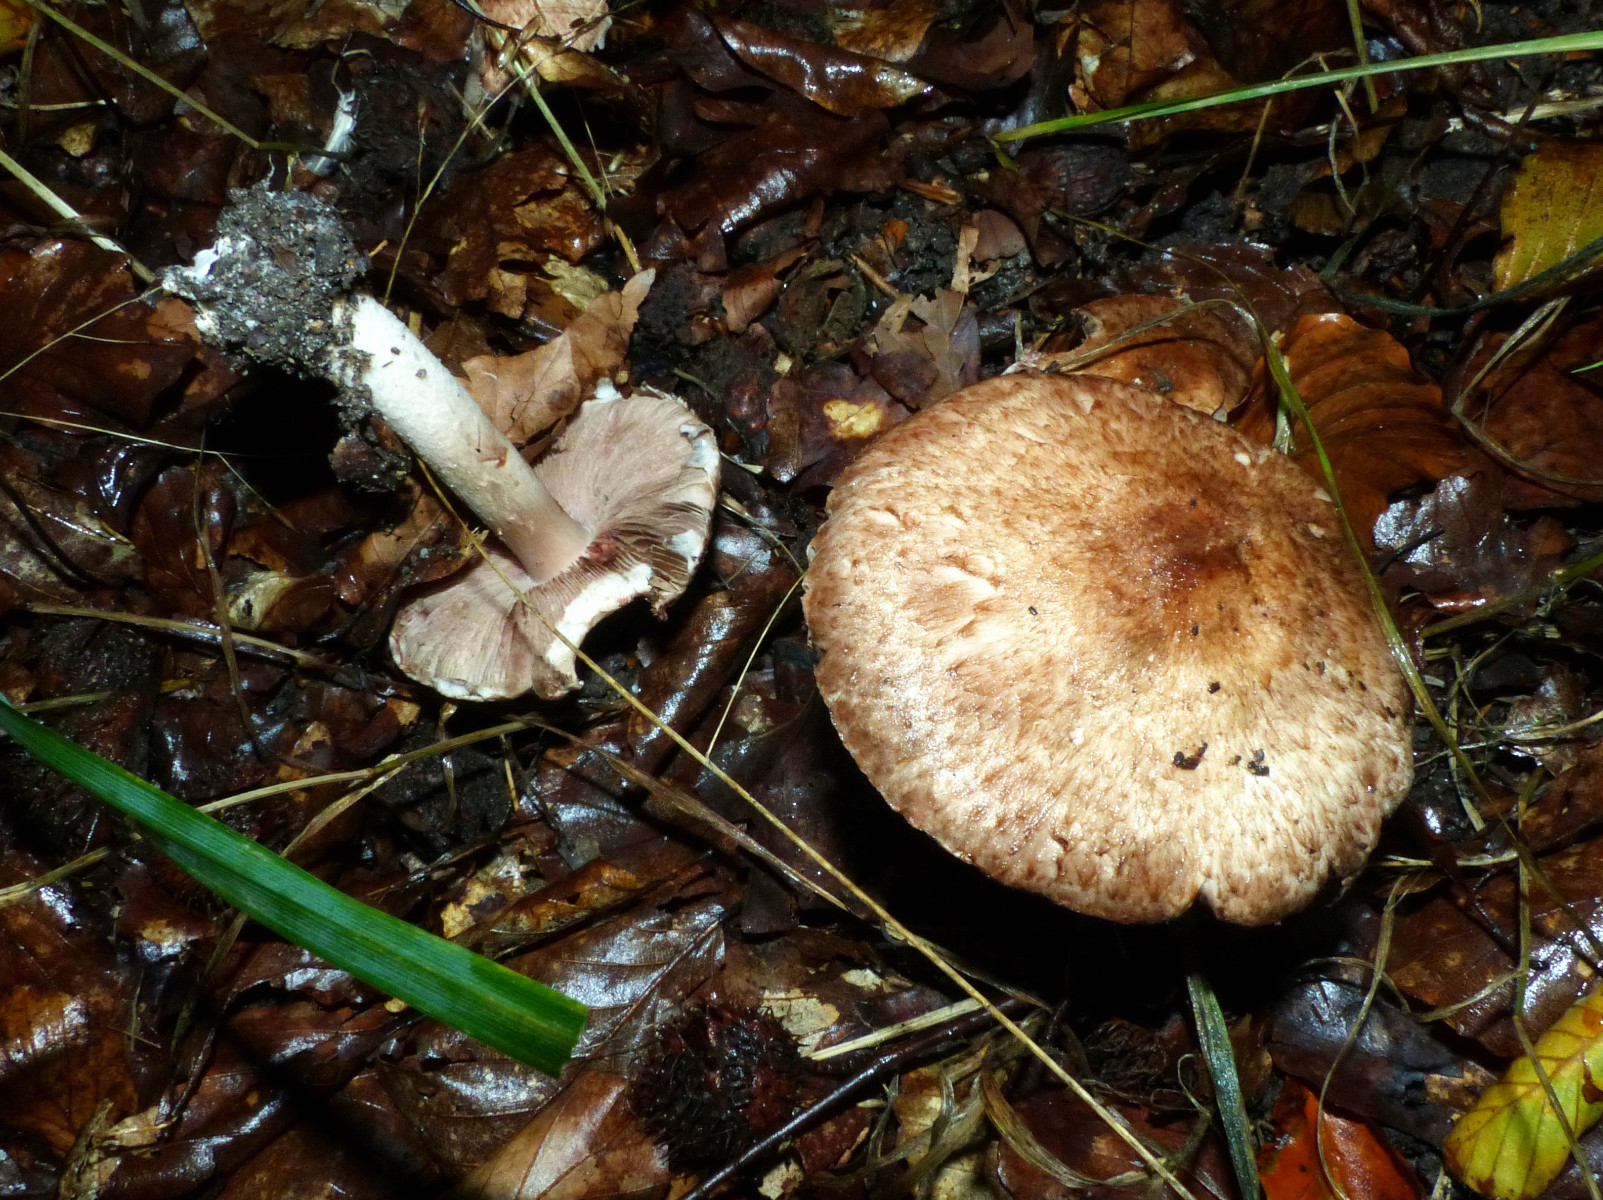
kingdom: Fungi
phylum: Basidiomycota
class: Agaricomycetes
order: Agaricales
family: Agaricaceae
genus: Agaricus
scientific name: Agaricus langei
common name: stor blod-champignon
